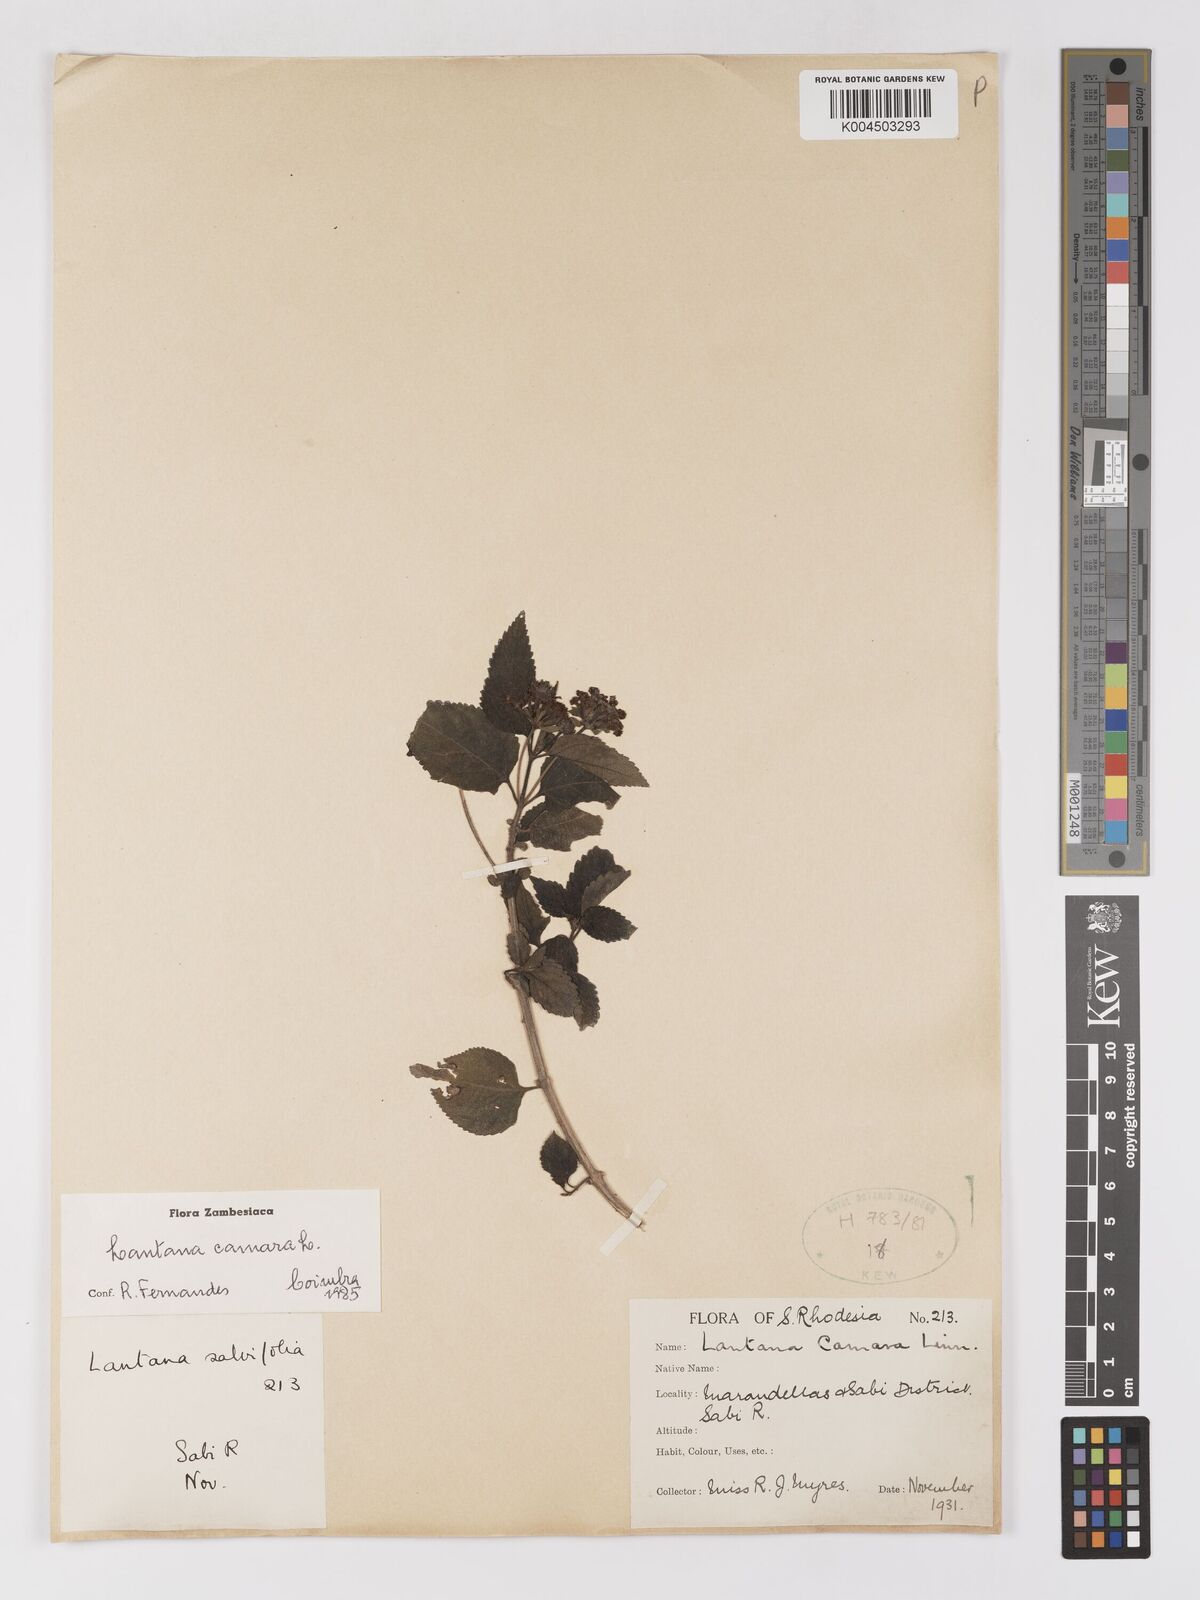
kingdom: Plantae
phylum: Tracheophyta
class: Magnoliopsida
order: Lamiales
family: Verbenaceae
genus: Lantana
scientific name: Lantana camara
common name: Lantana
